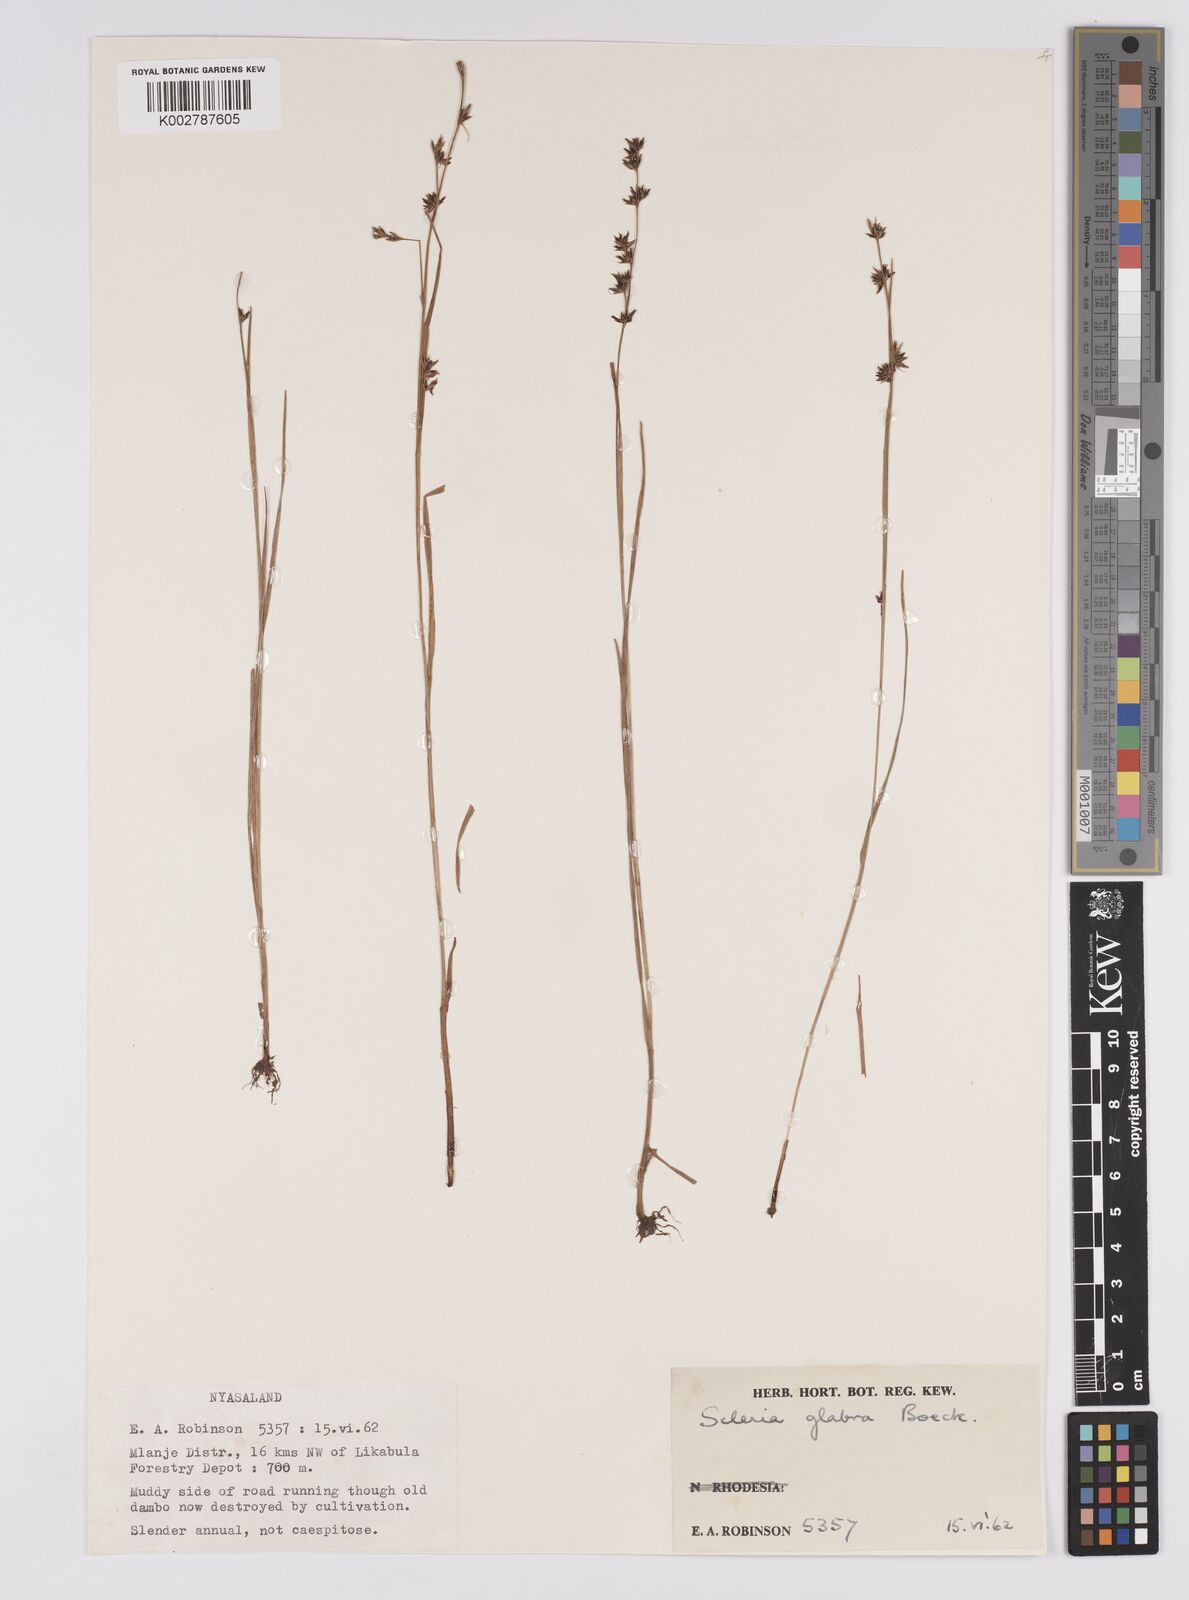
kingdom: Plantae
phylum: Tracheophyta
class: Liliopsida
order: Poales
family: Cyperaceae
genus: Scleria
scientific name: Scleria glabra
